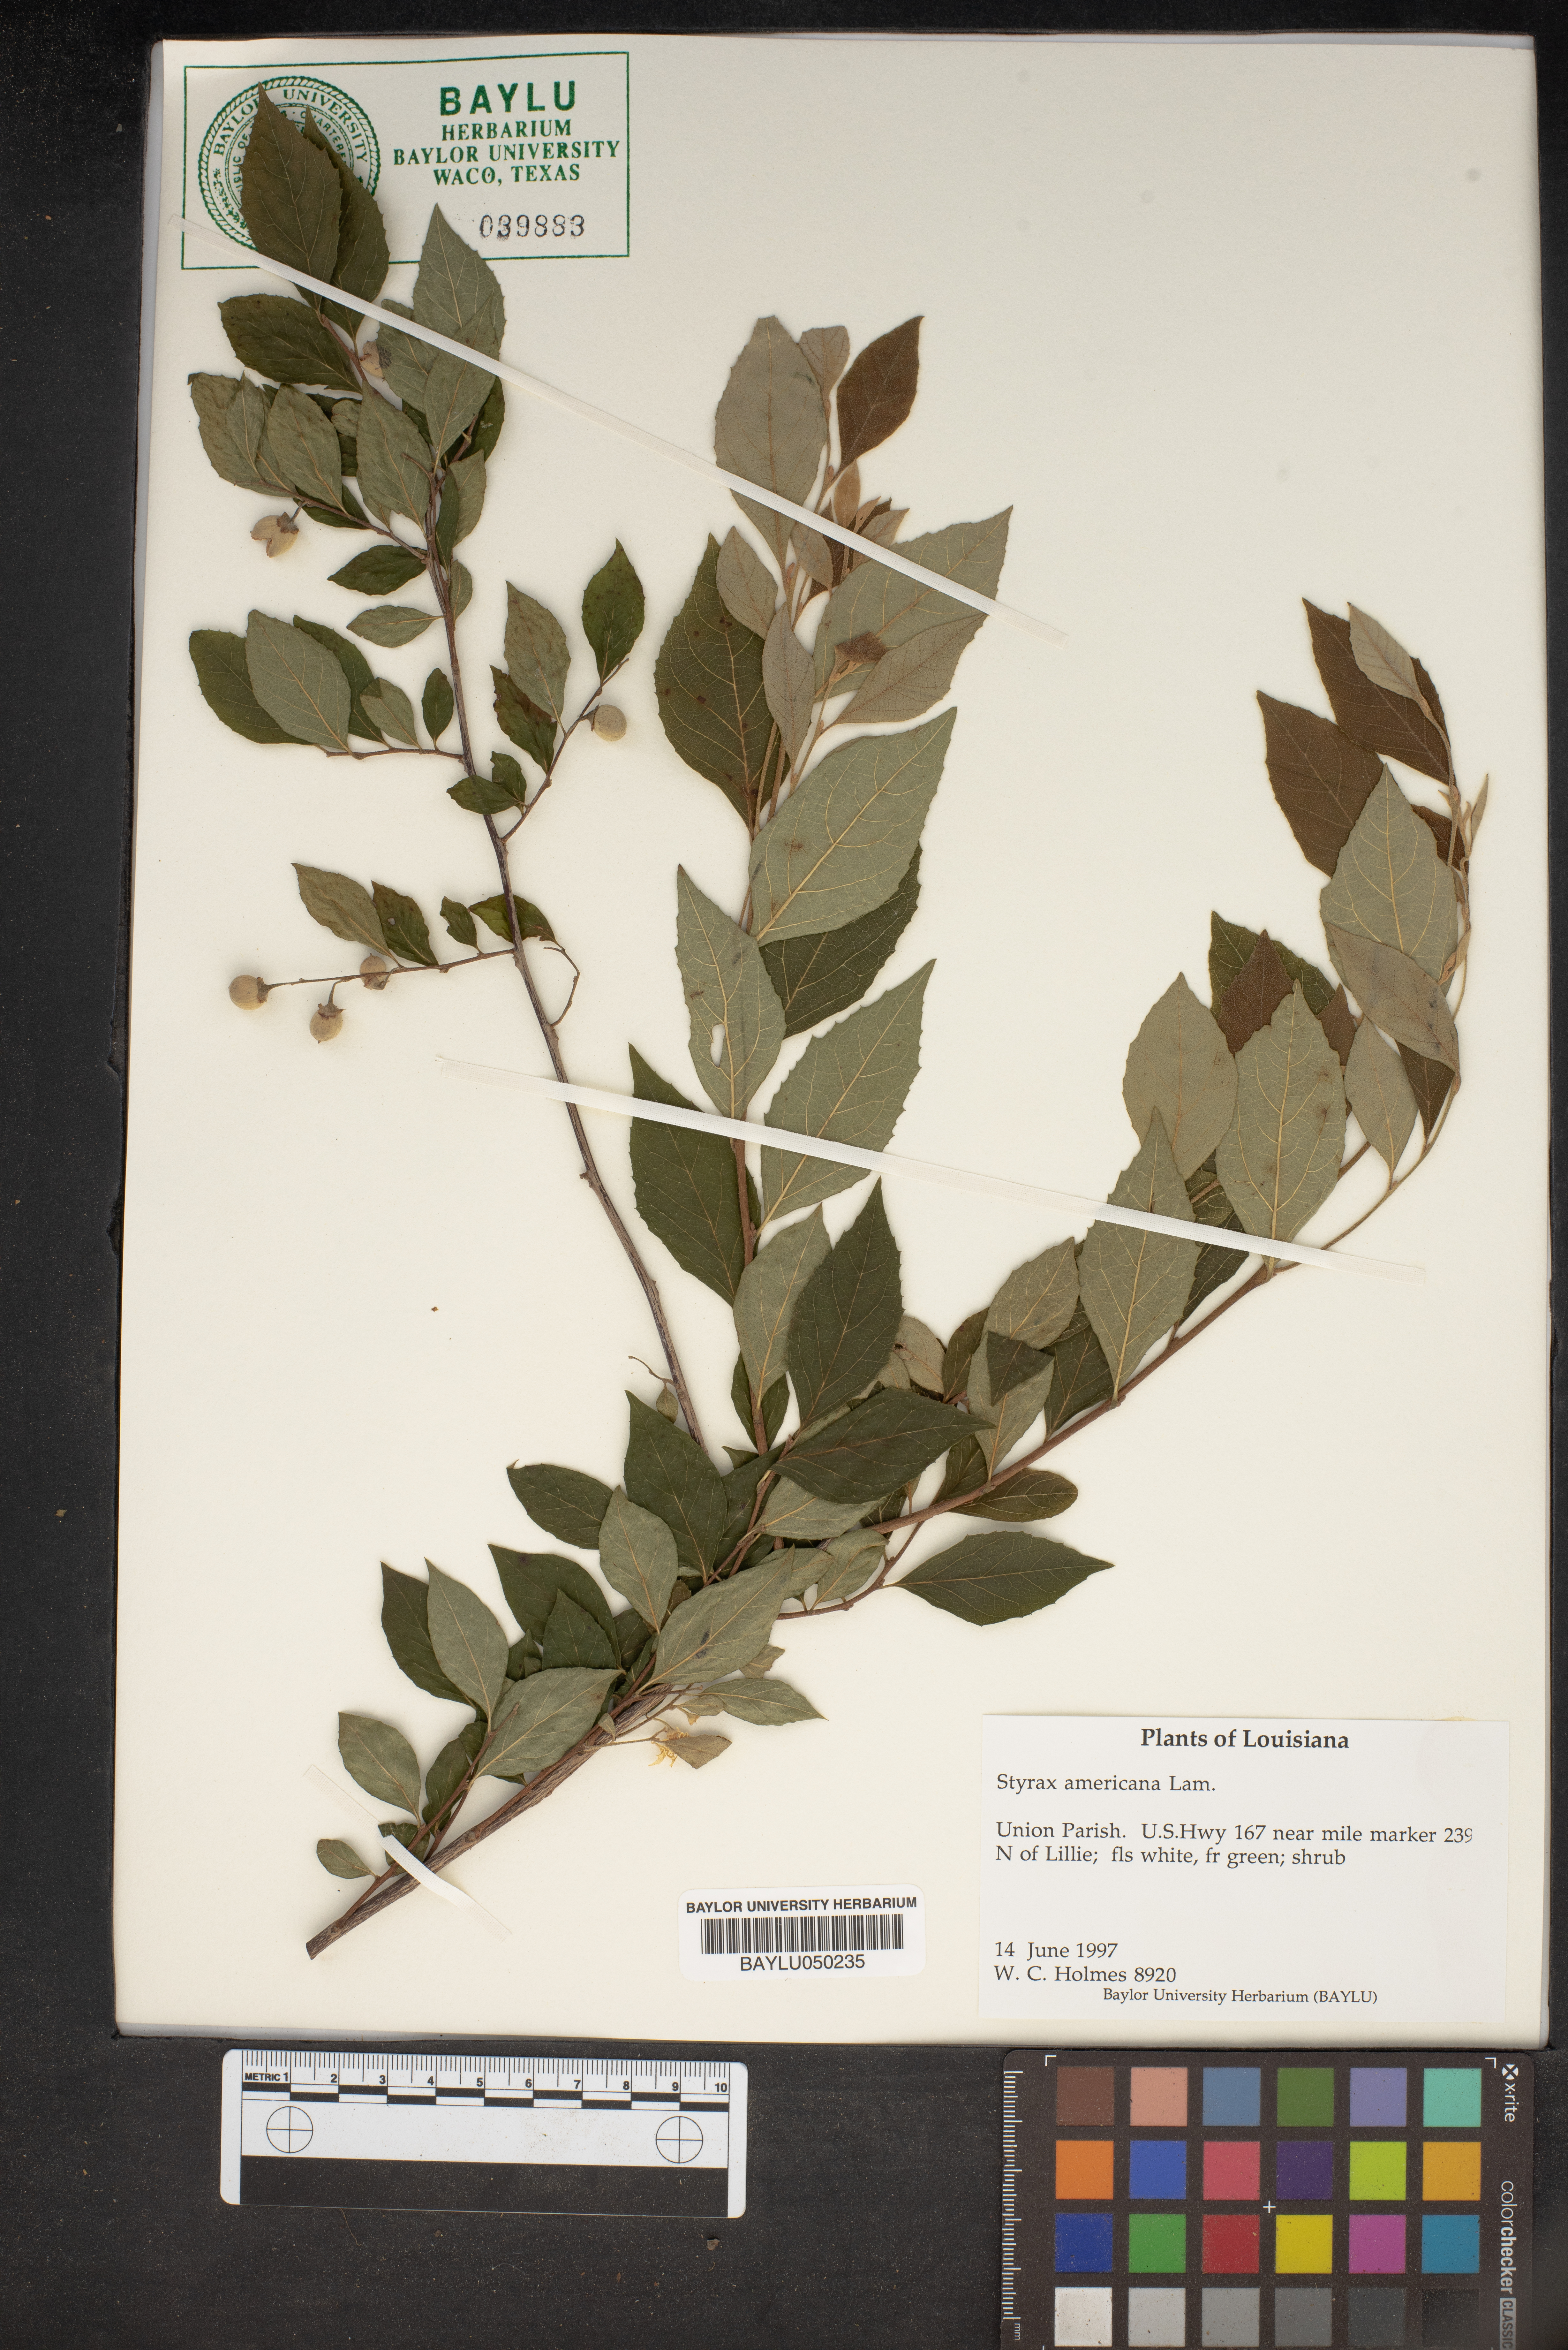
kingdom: Plantae
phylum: Tracheophyta
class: Magnoliopsida
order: Ericales
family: Styracaceae
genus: Styrax
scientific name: Styrax americanus
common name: American snowbell
